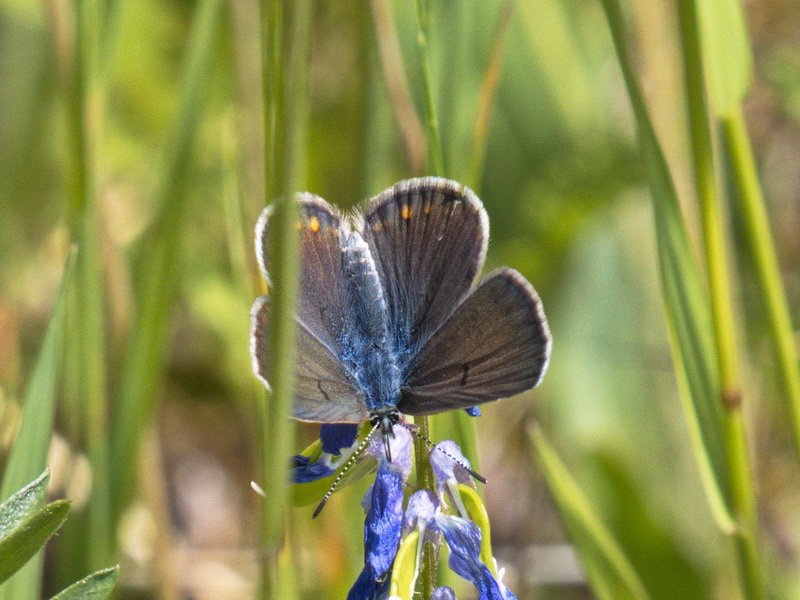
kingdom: Animalia
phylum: Arthropoda
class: Insecta
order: Lepidoptera
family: Lycaenidae
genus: Plebejus
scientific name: Plebejus saepiolus
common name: Greenish Blue
